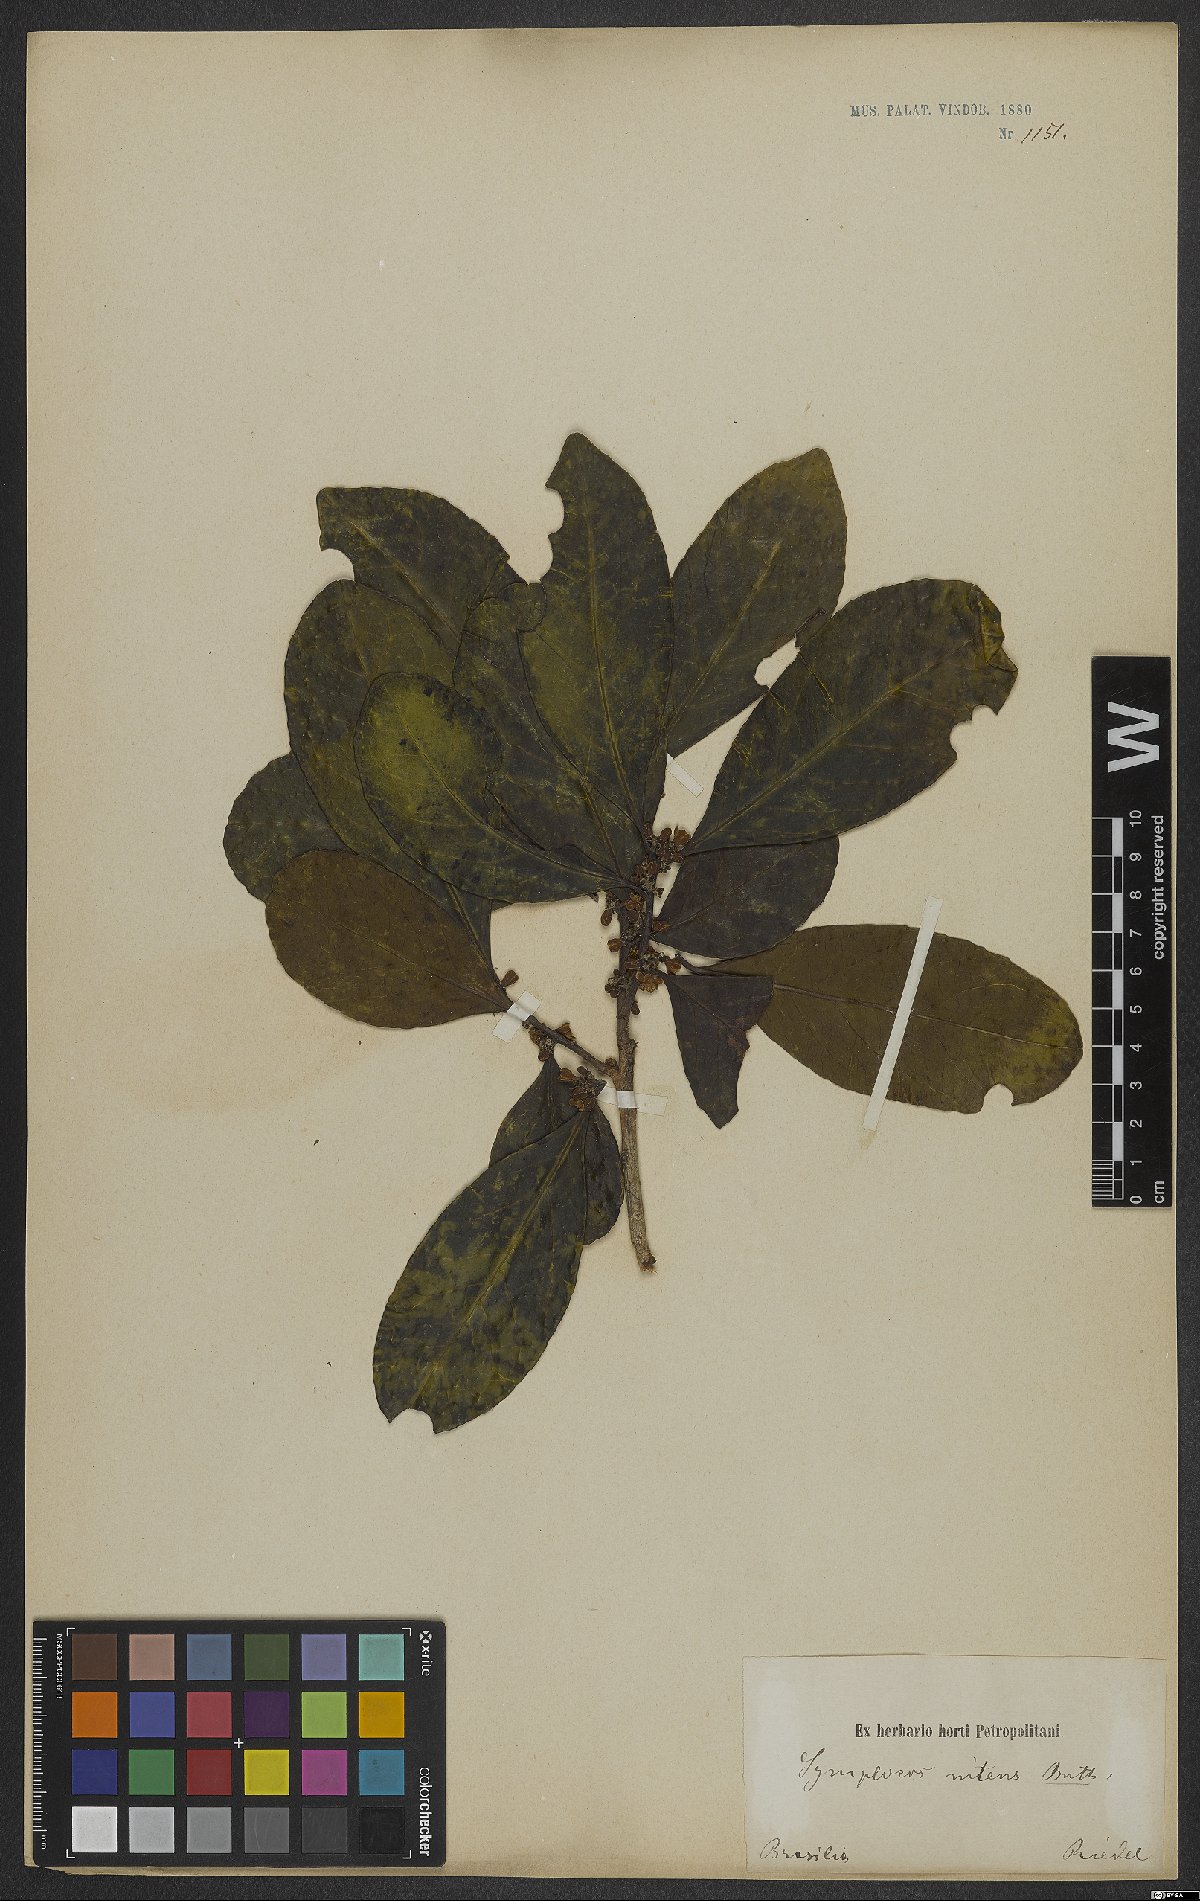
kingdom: Plantae
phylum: Tracheophyta
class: Magnoliopsida
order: Ericales
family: Symplocaceae
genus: Symplocos
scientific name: Symplocos nitens
